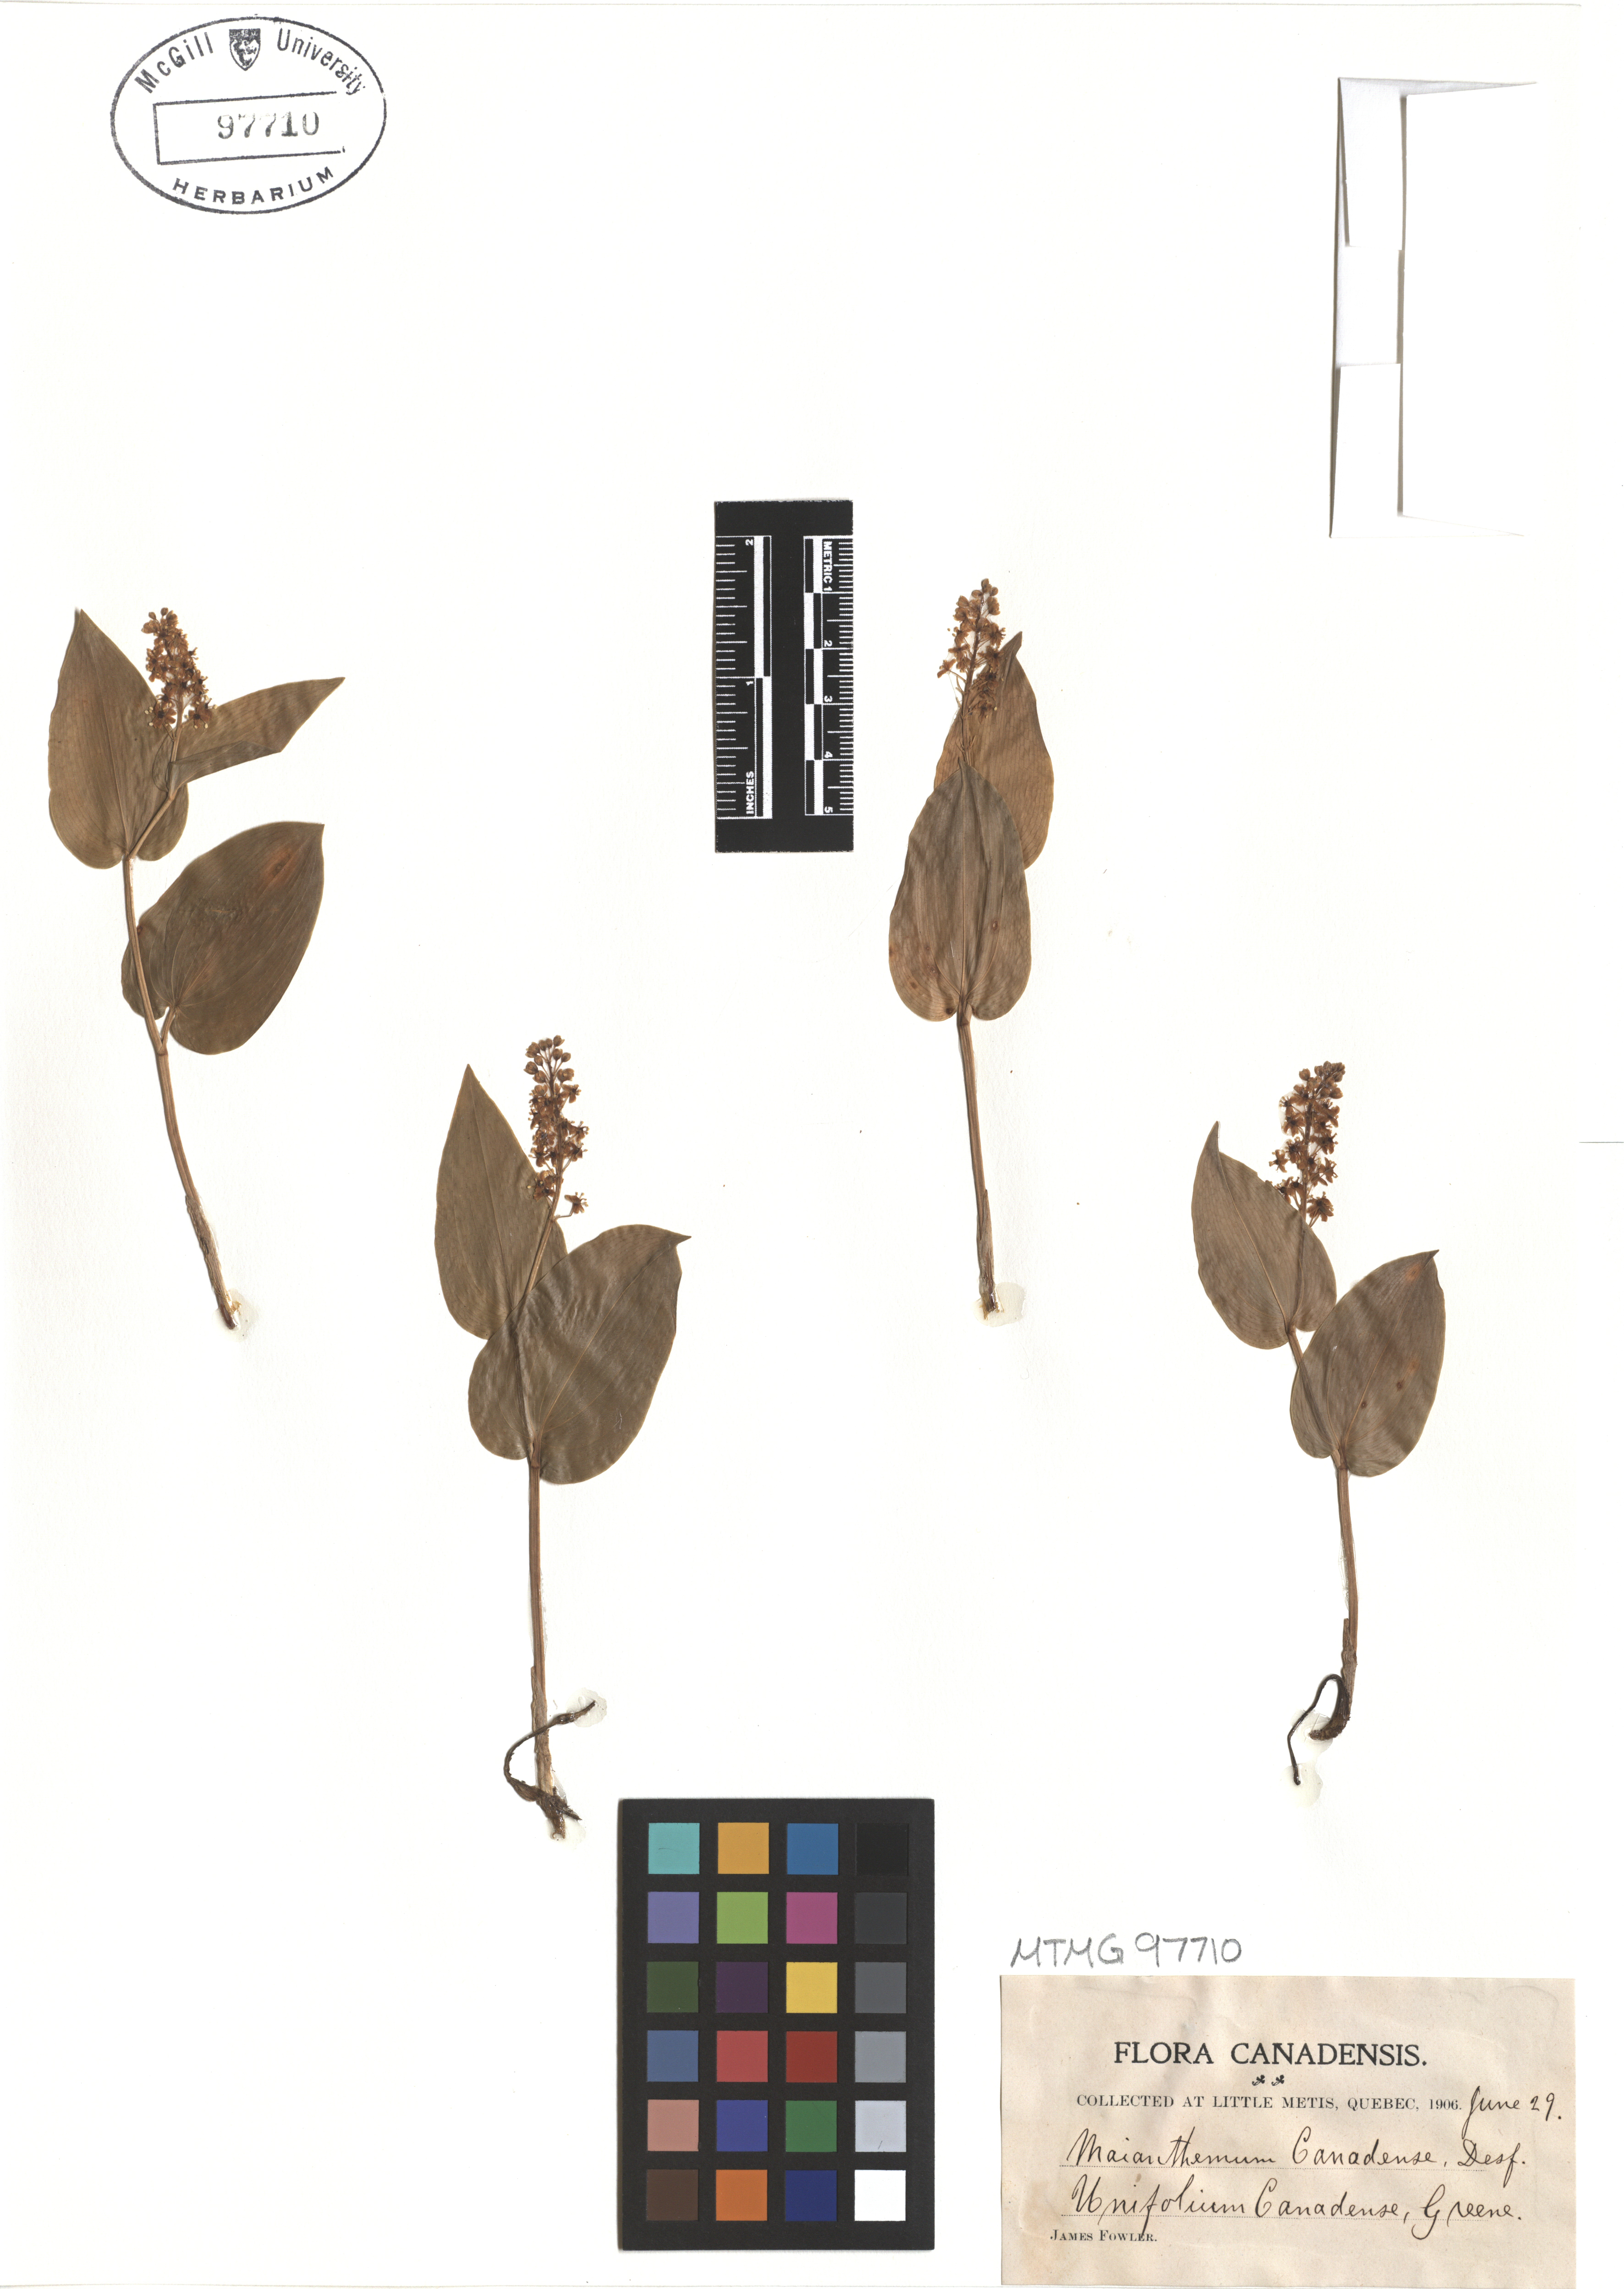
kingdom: Plantae
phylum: Tracheophyta
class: Liliopsida
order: Asparagales
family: Asparagaceae
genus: Maianthemum
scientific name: Maianthemum canadense
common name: False lily-of-the-valley
